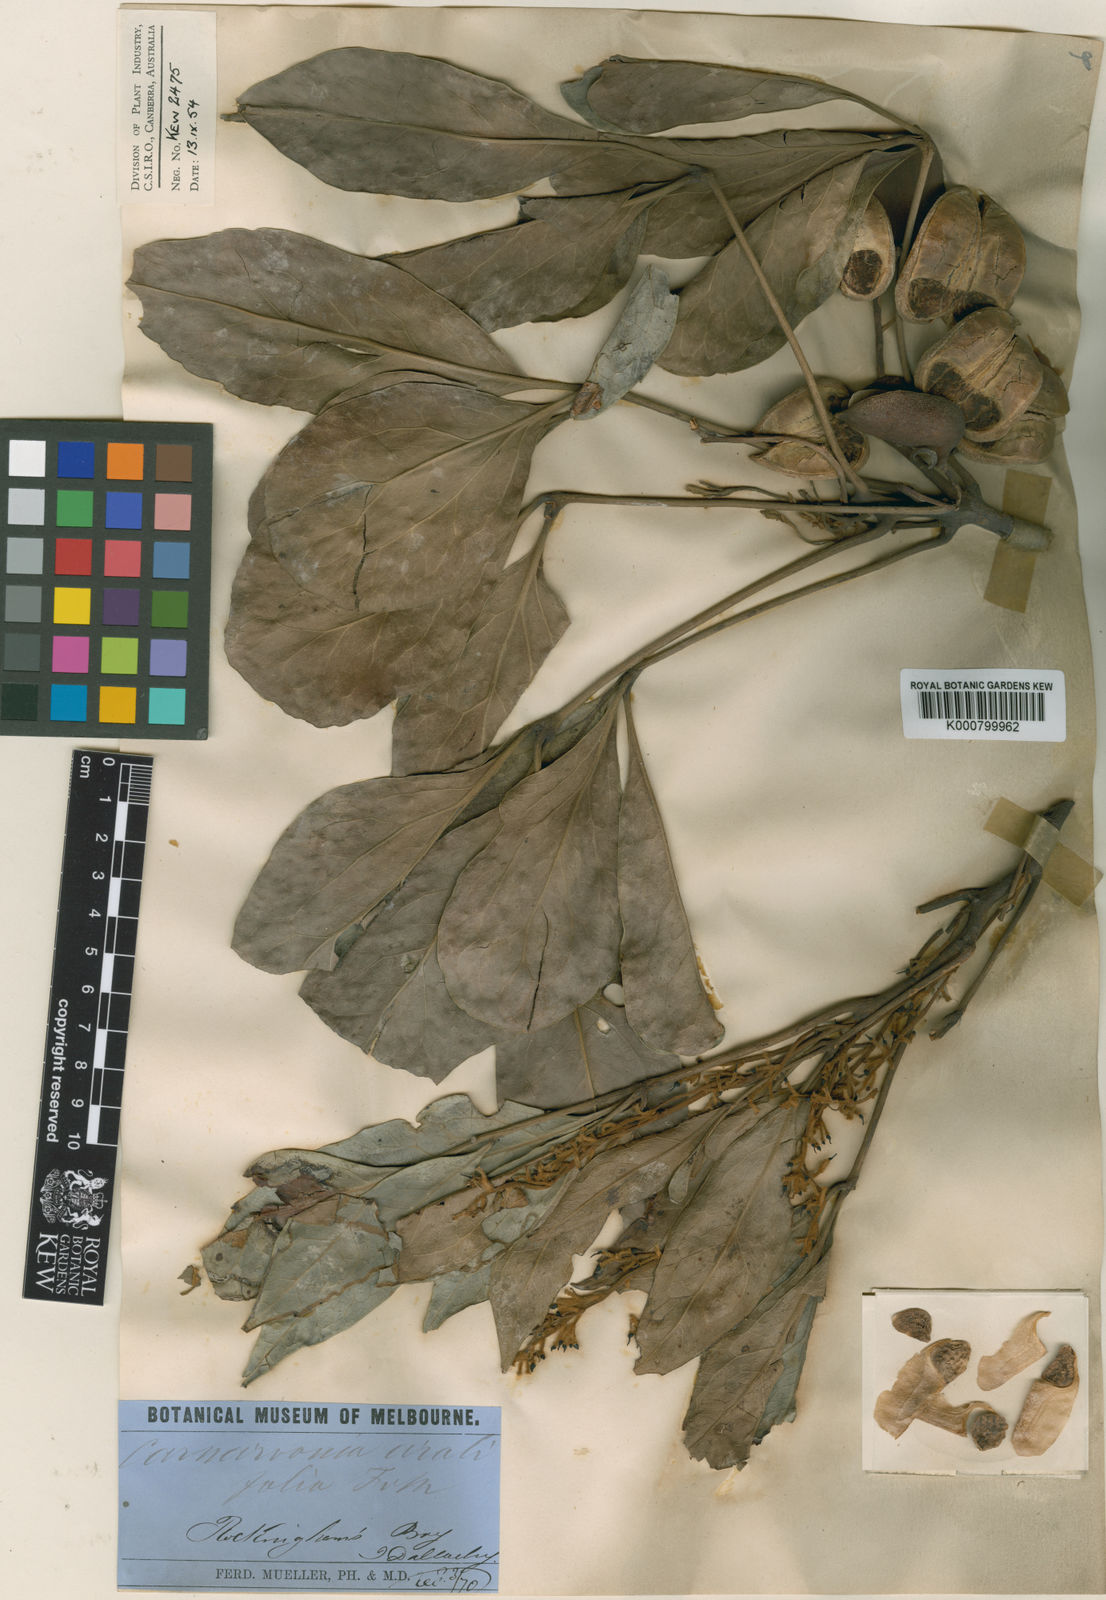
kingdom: Plantae
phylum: Tracheophyta
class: Magnoliopsida
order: Proteales
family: Proteaceae
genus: Carnarvonia
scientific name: Carnarvonia araliifolia
